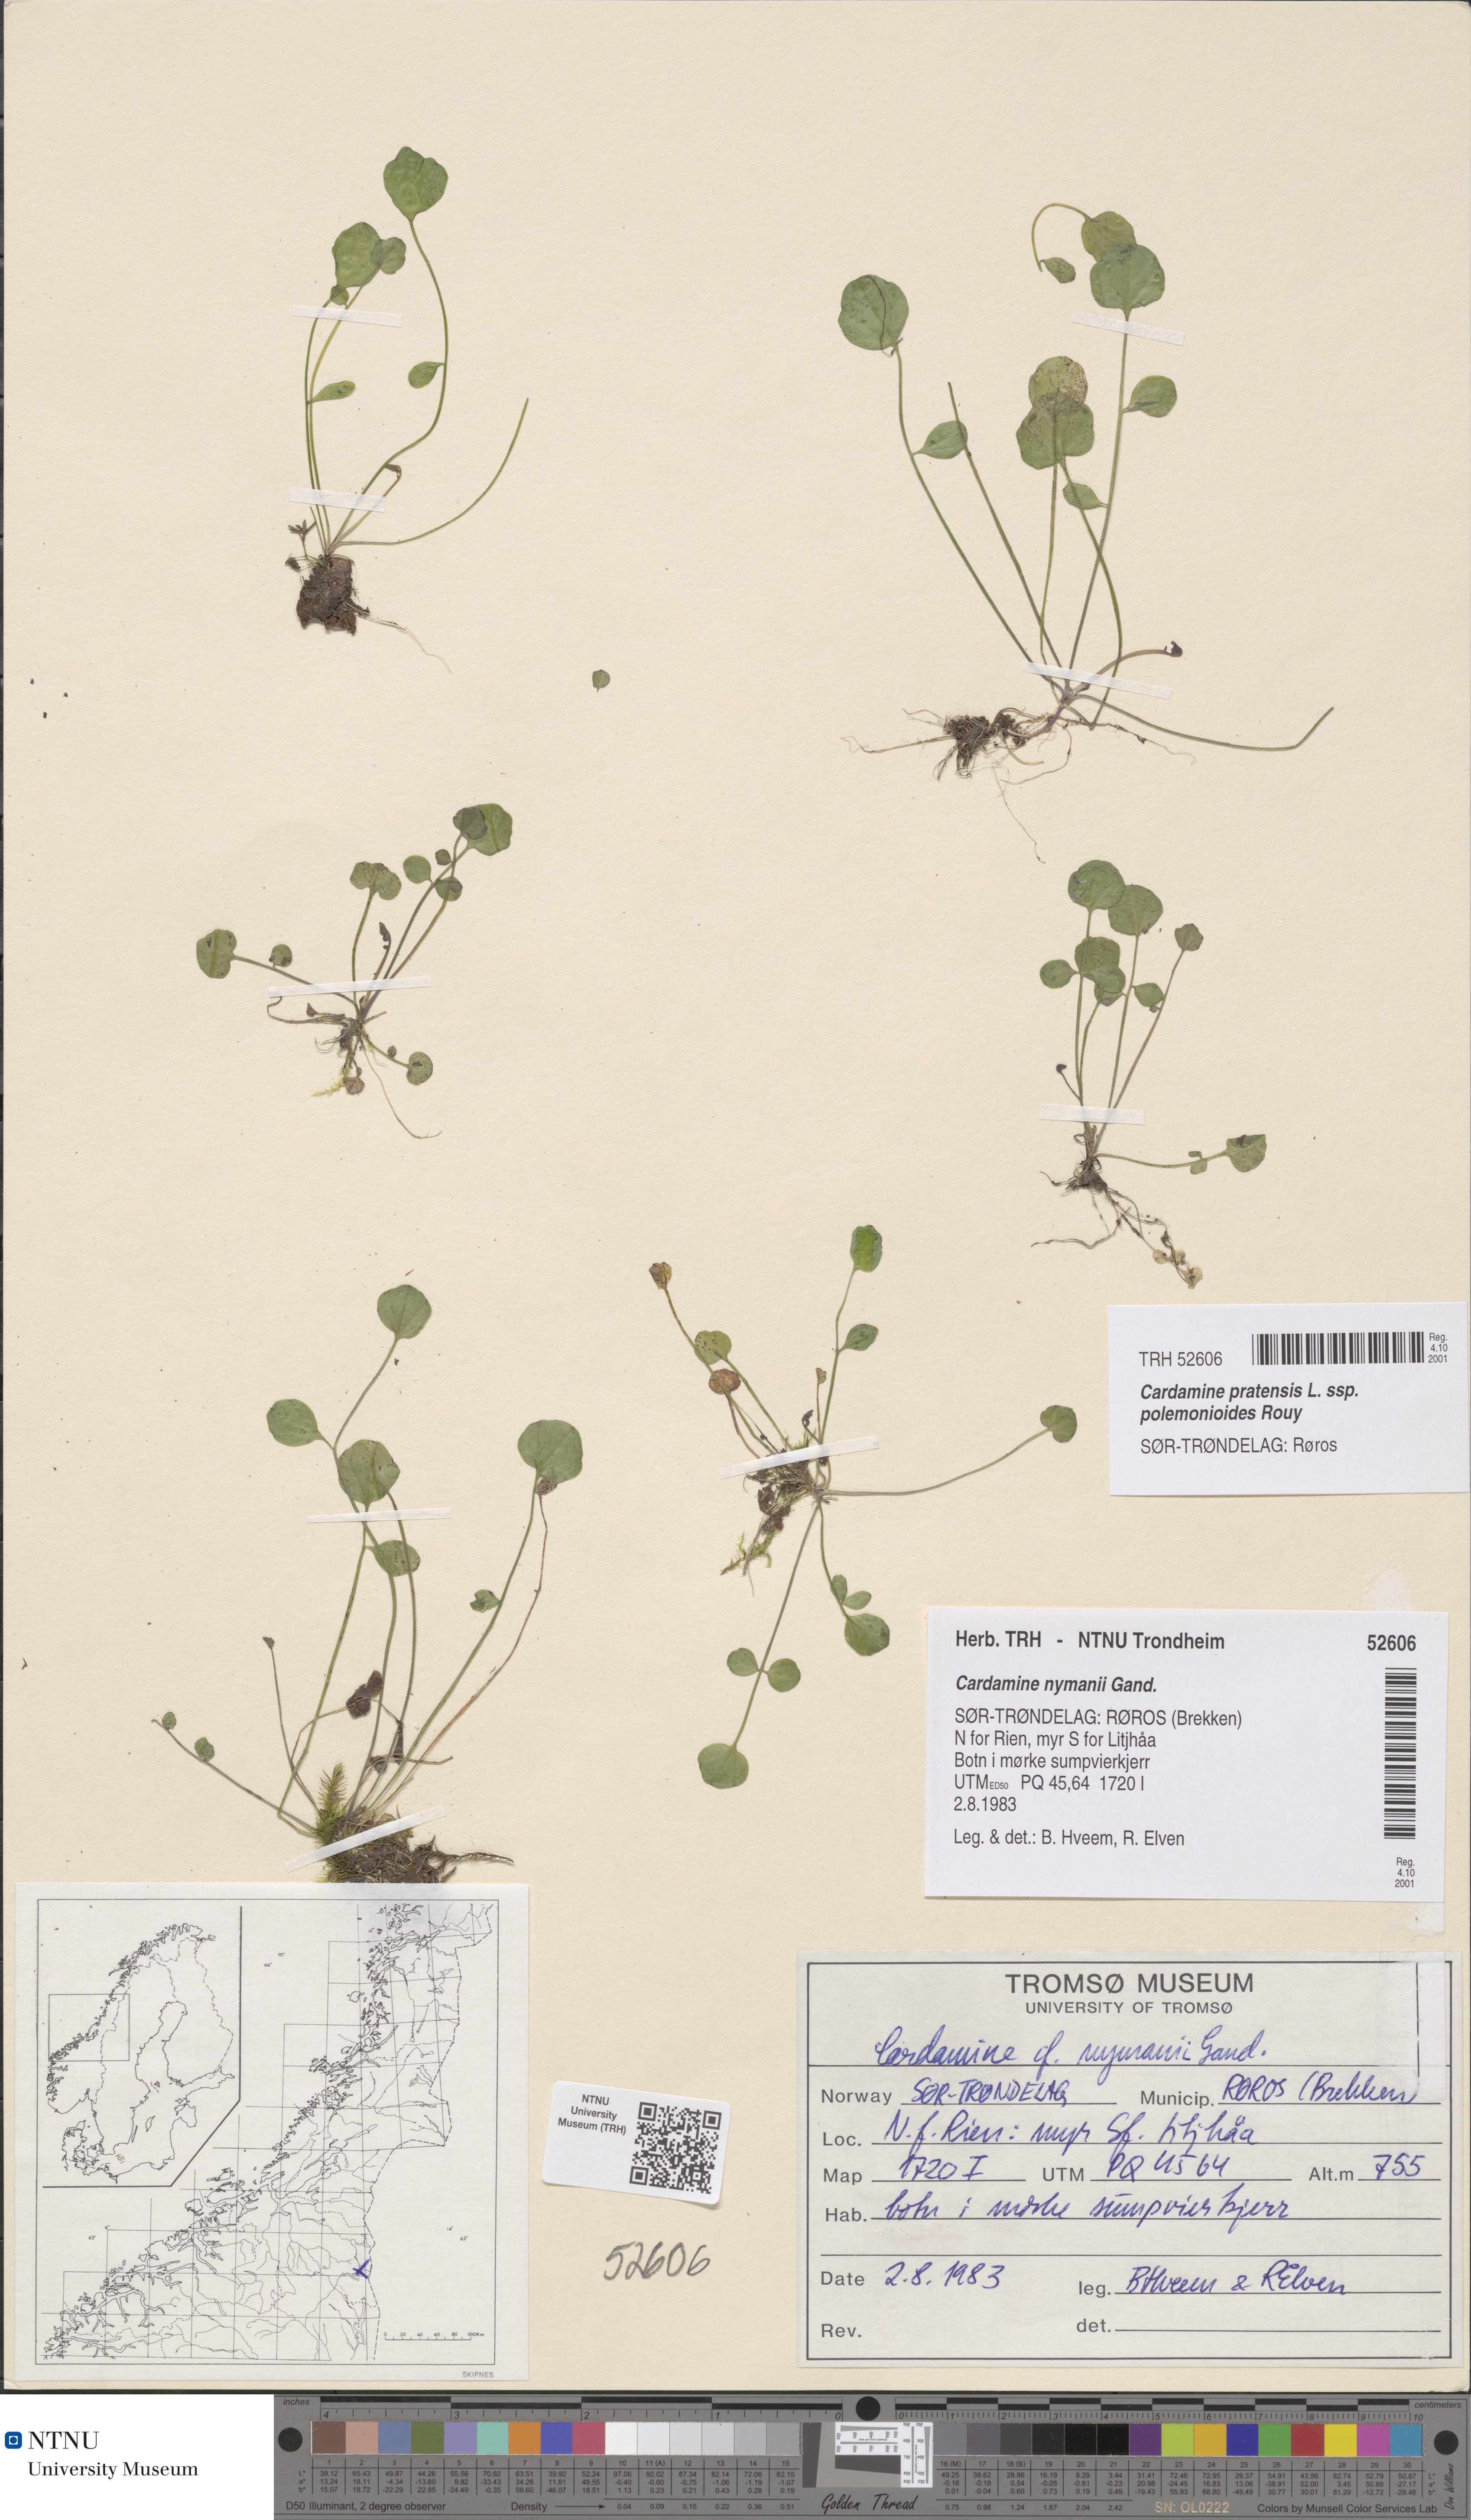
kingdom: Plantae
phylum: Tracheophyta
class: Magnoliopsida
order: Brassicales
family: Brassicaceae
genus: Cardamine
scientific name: Cardamine nymanii
